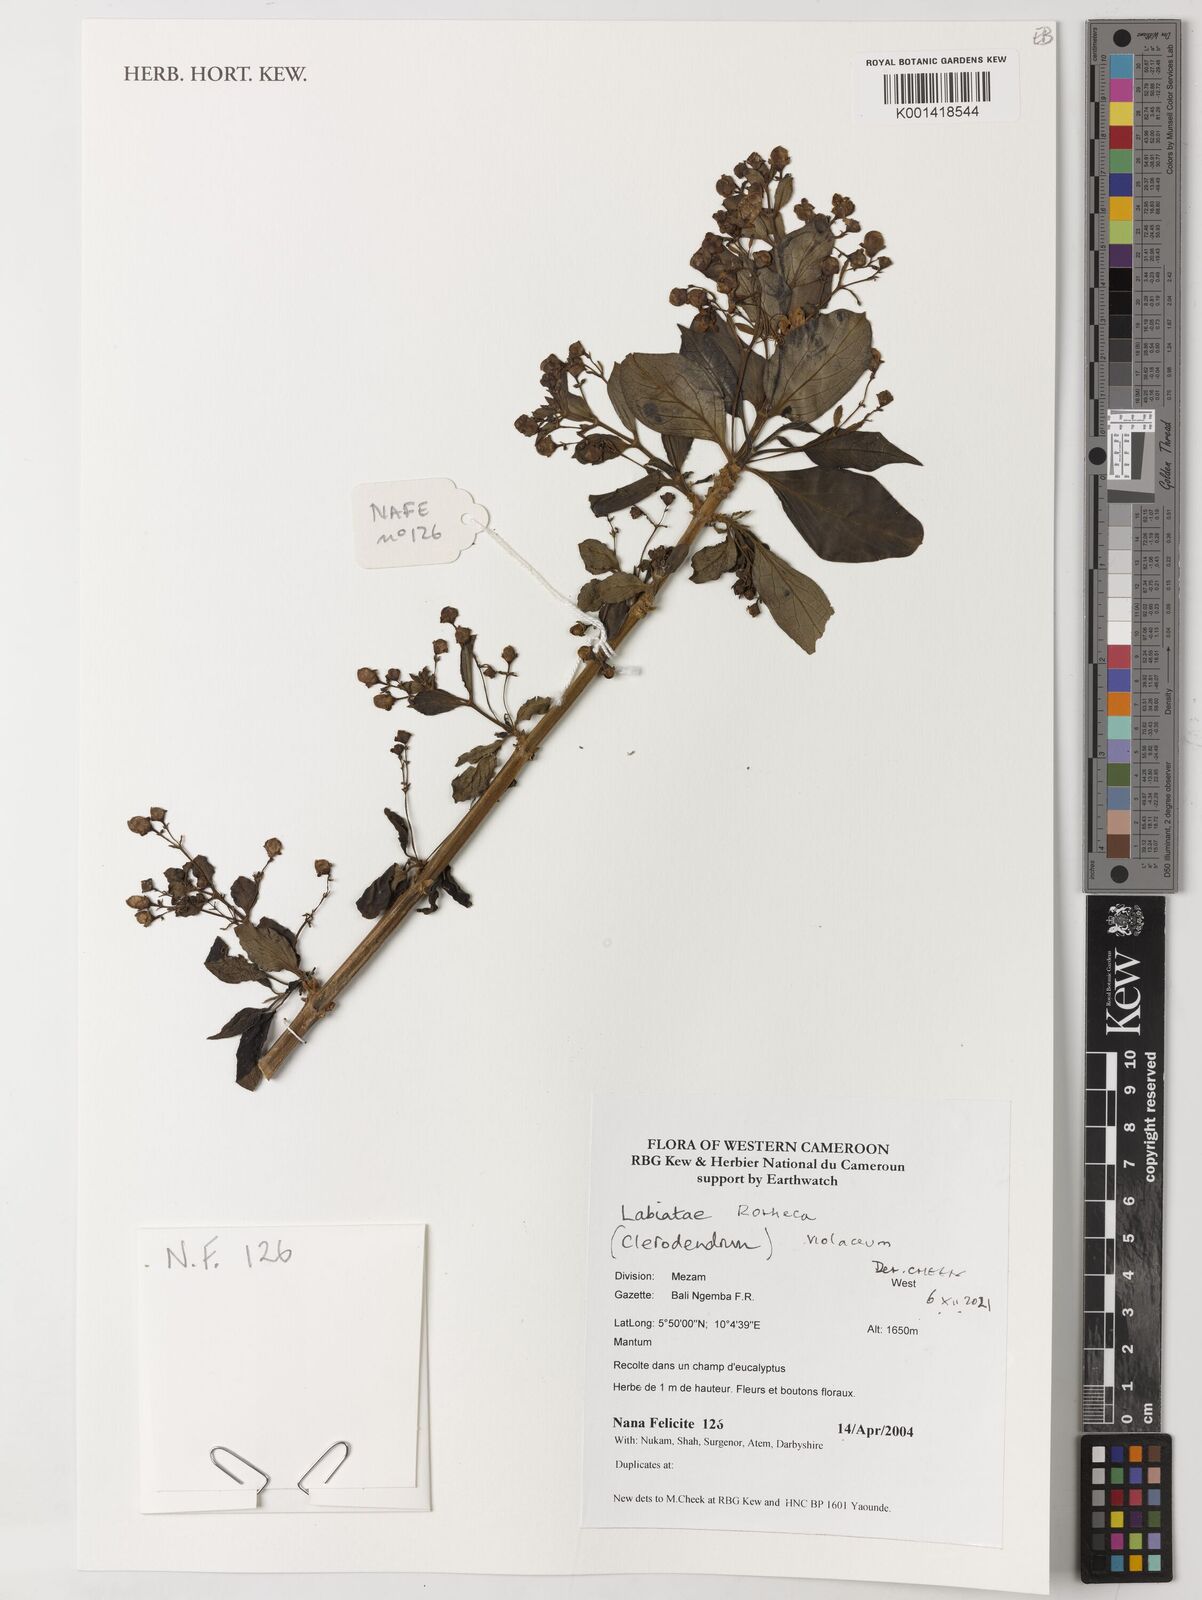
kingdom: Plantae
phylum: Tracheophyta
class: Magnoliopsida
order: Lamiales
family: Lamiaceae
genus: Rotheca
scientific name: Rotheca violacea
